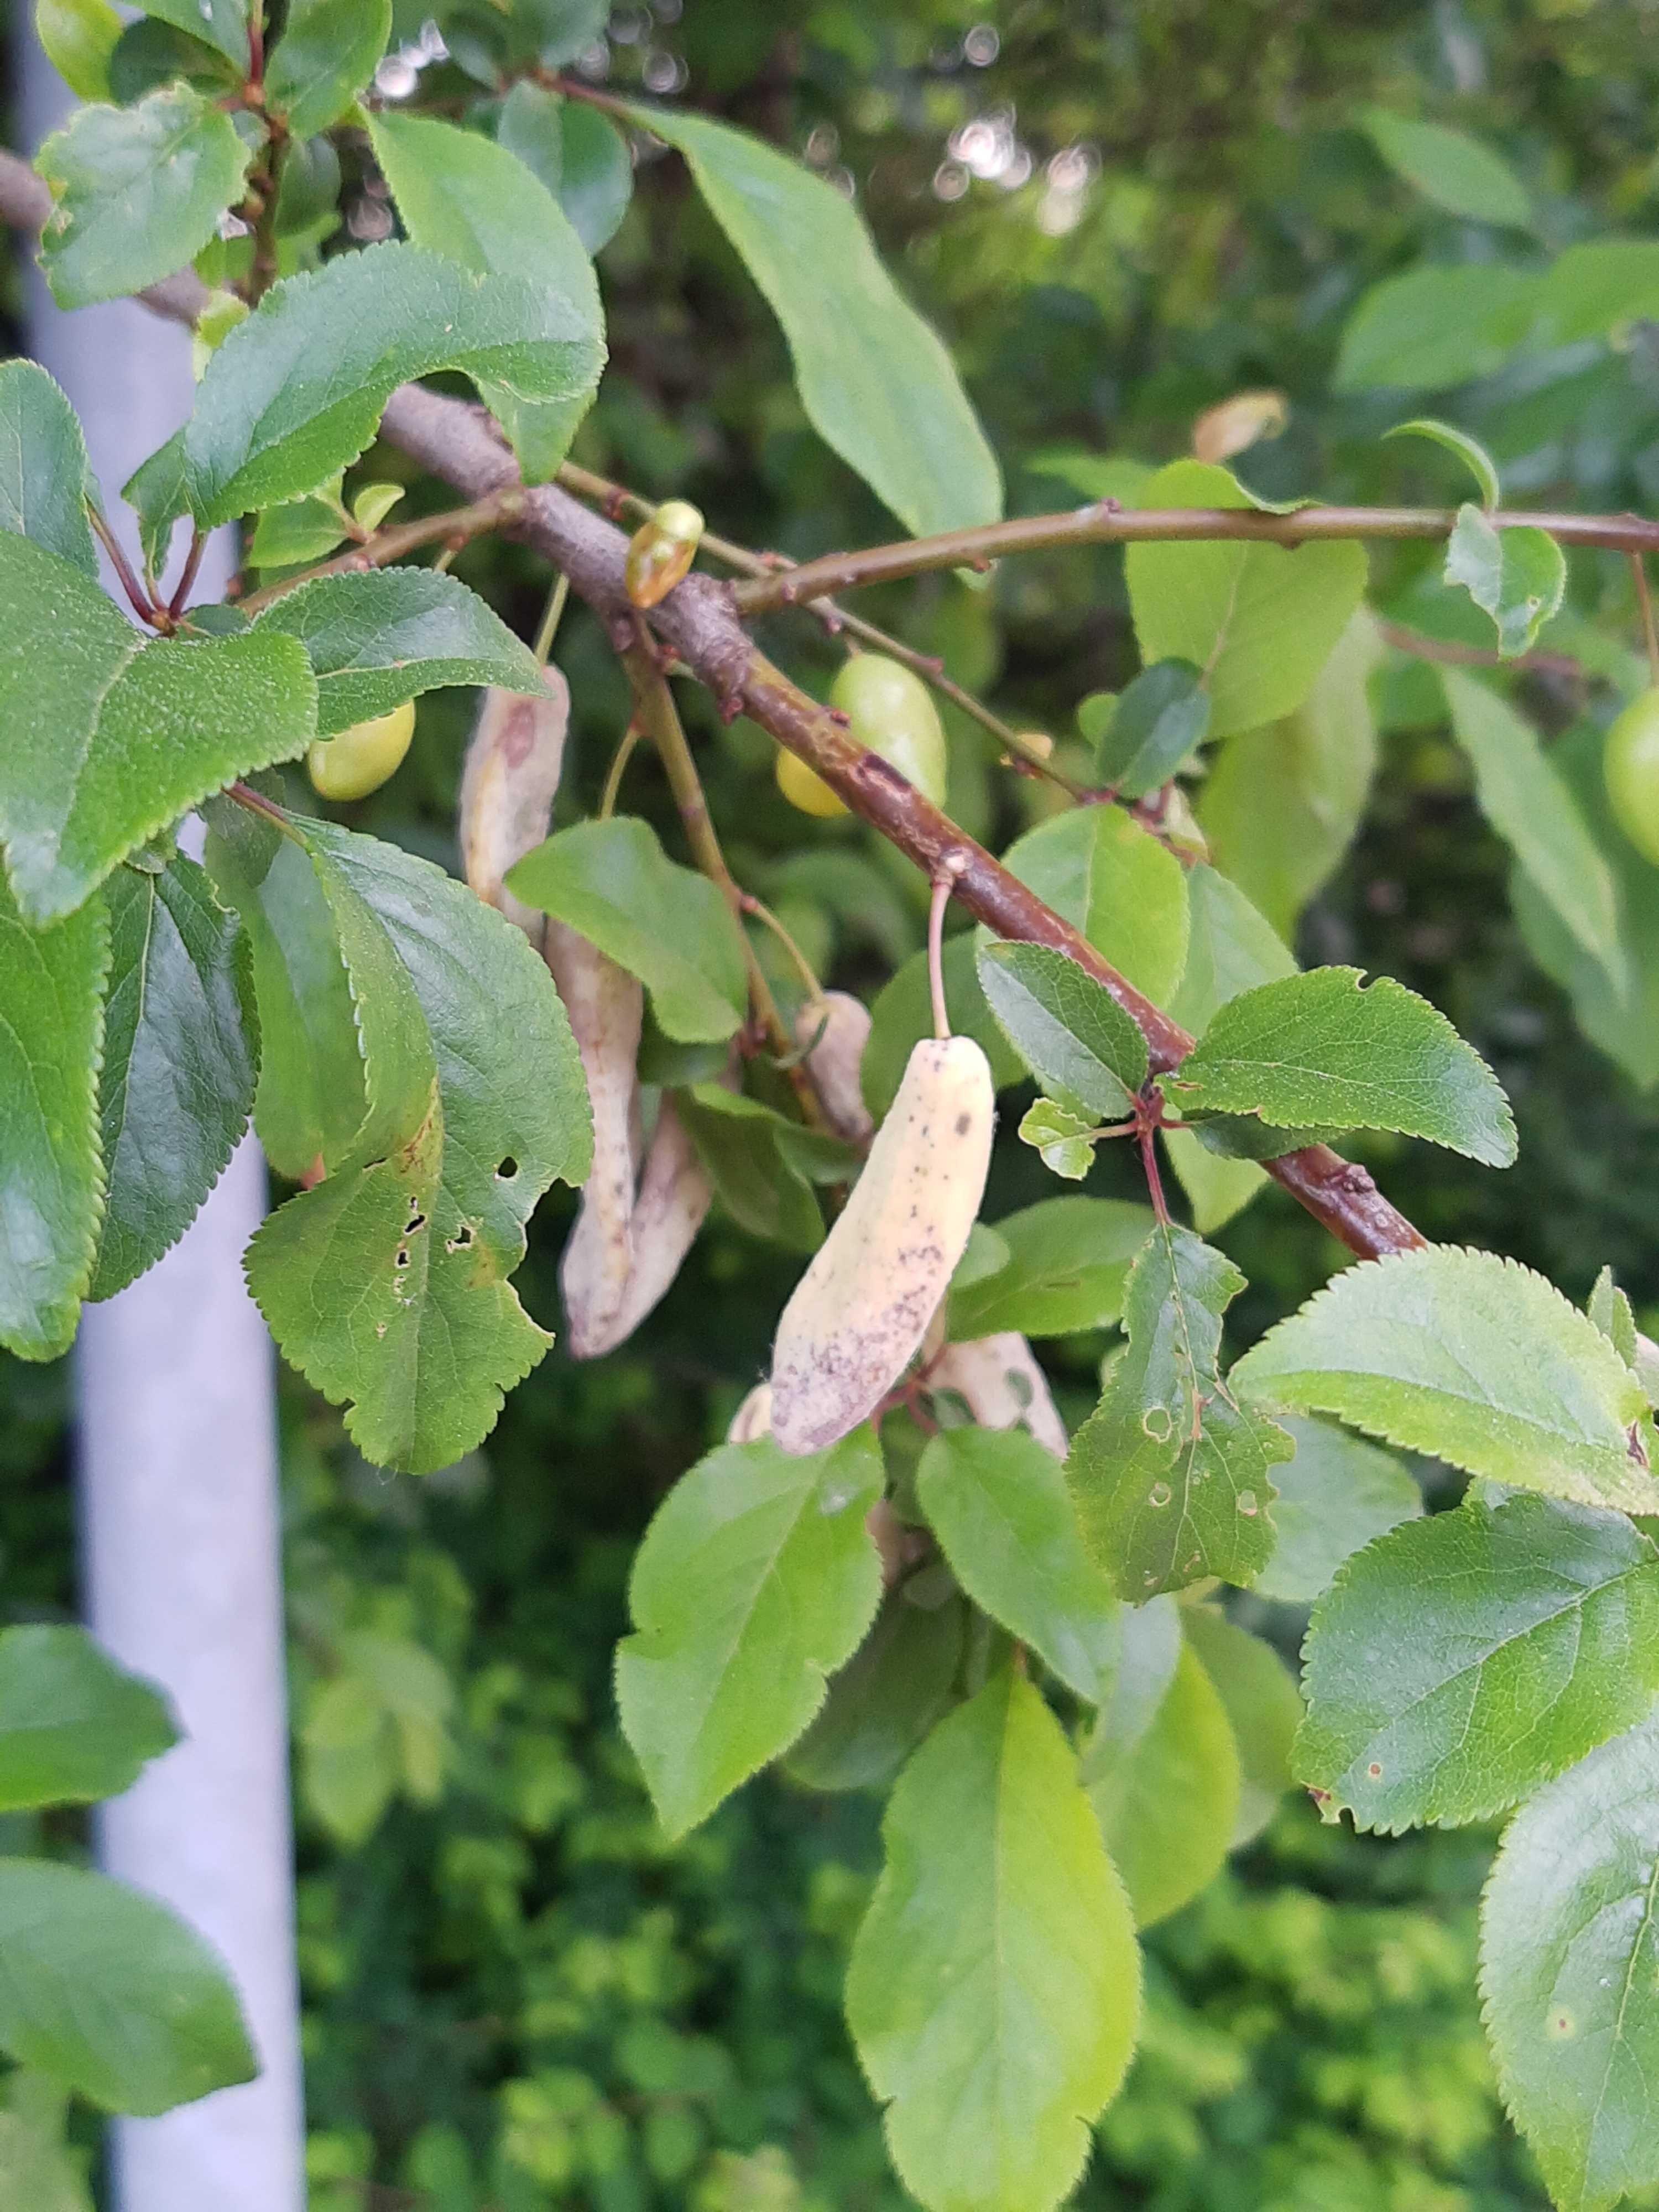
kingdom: Fungi
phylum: Ascomycota
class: Taphrinomycetes
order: Taphrinales
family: Taphrinaceae
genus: Taphrina
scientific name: Taphrina pruni
